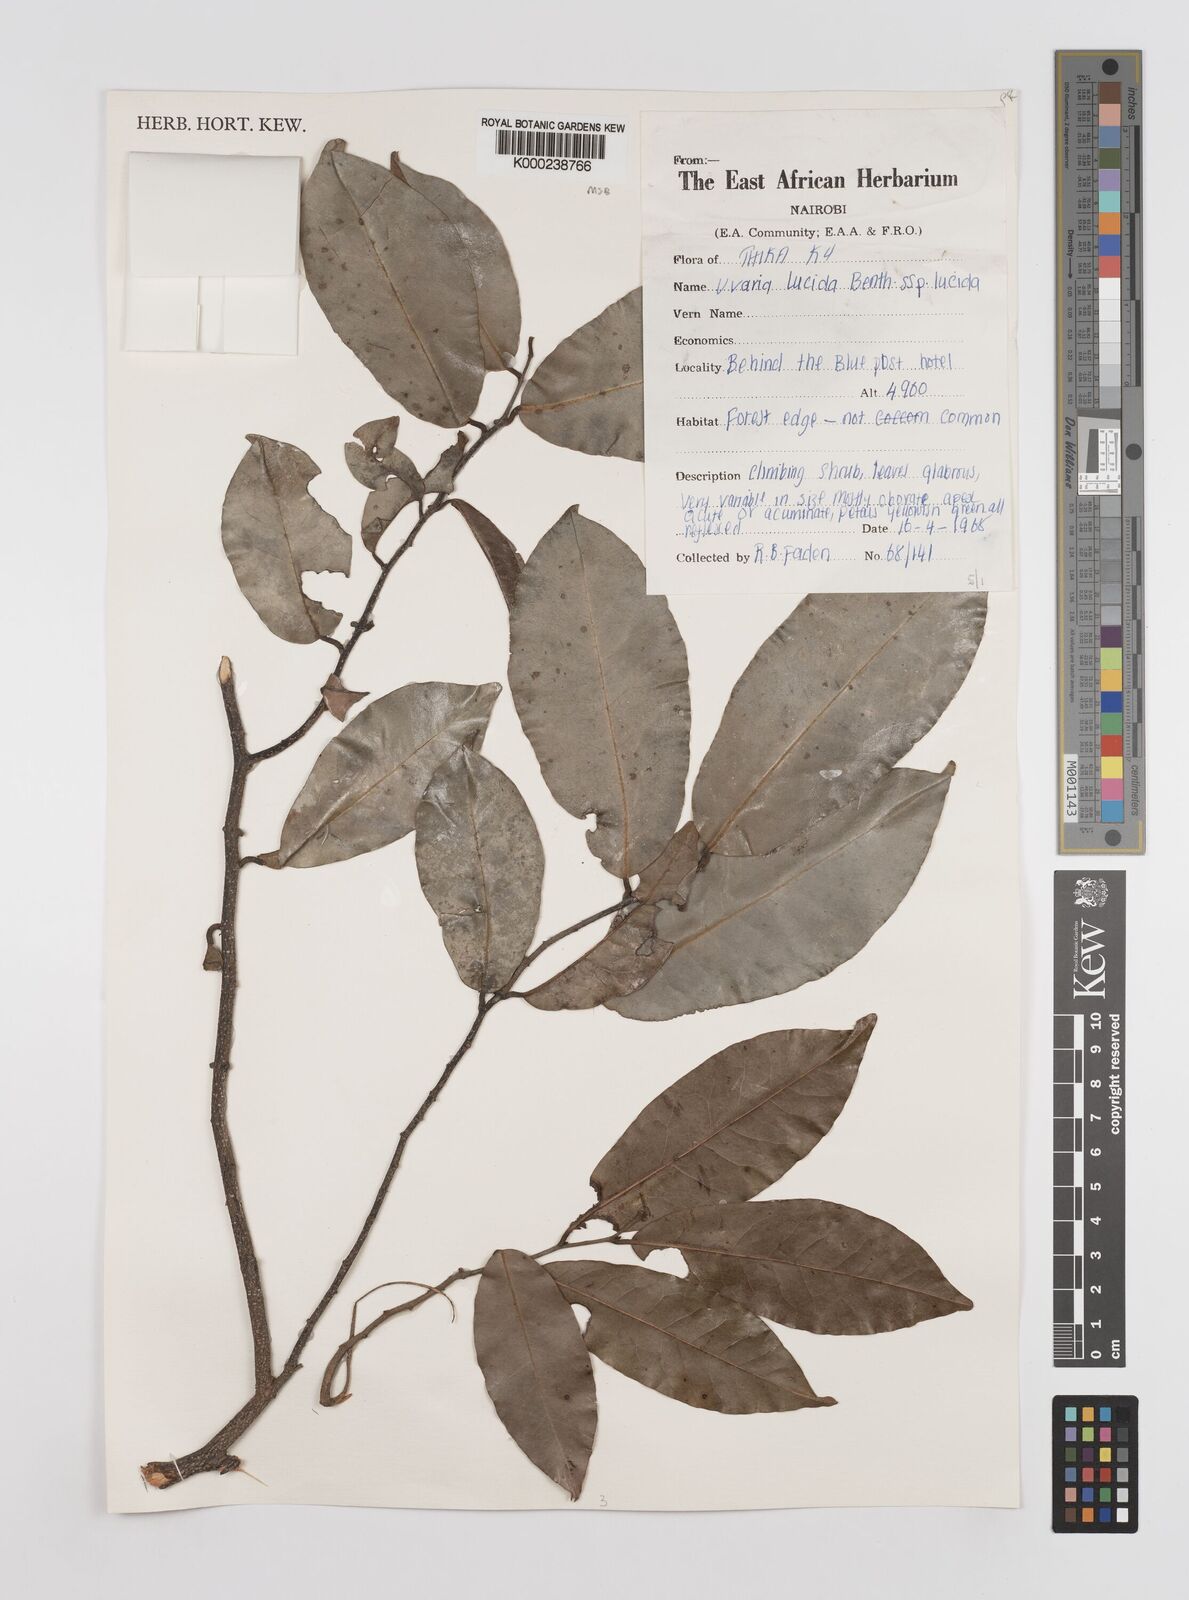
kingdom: Plantae
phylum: Tracheophyta
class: Magnoliopsida
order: Magnoliales
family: Annonaceae
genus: Uvaria
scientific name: Uvaria lucida
